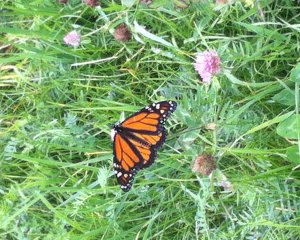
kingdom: Animalia
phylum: Arthropoda
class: Insecta
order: Lepidoptera
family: Nymphalidae
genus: Danaus
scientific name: Danaus plexippus
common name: Monarch
